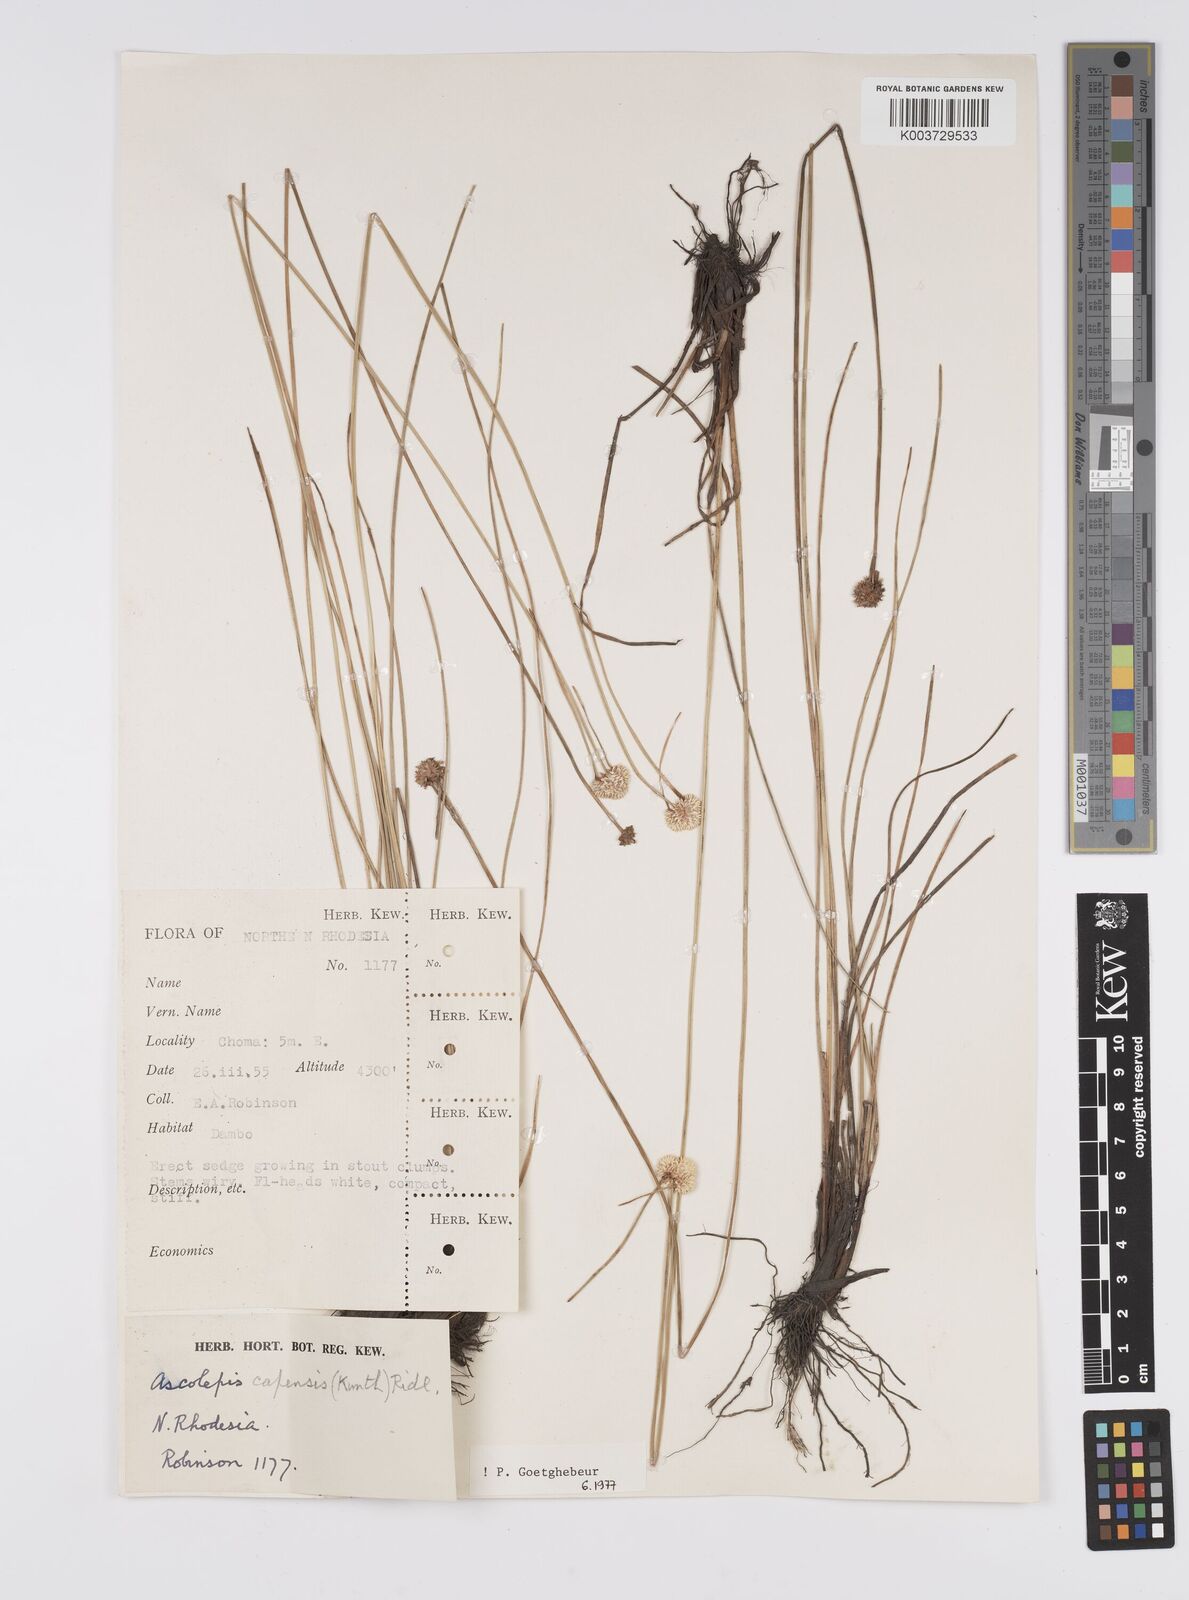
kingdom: Plantae
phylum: Tracheophyta
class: Liliopsida
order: Poales
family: Cyperaceae
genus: Cyperus
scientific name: Cyperus
